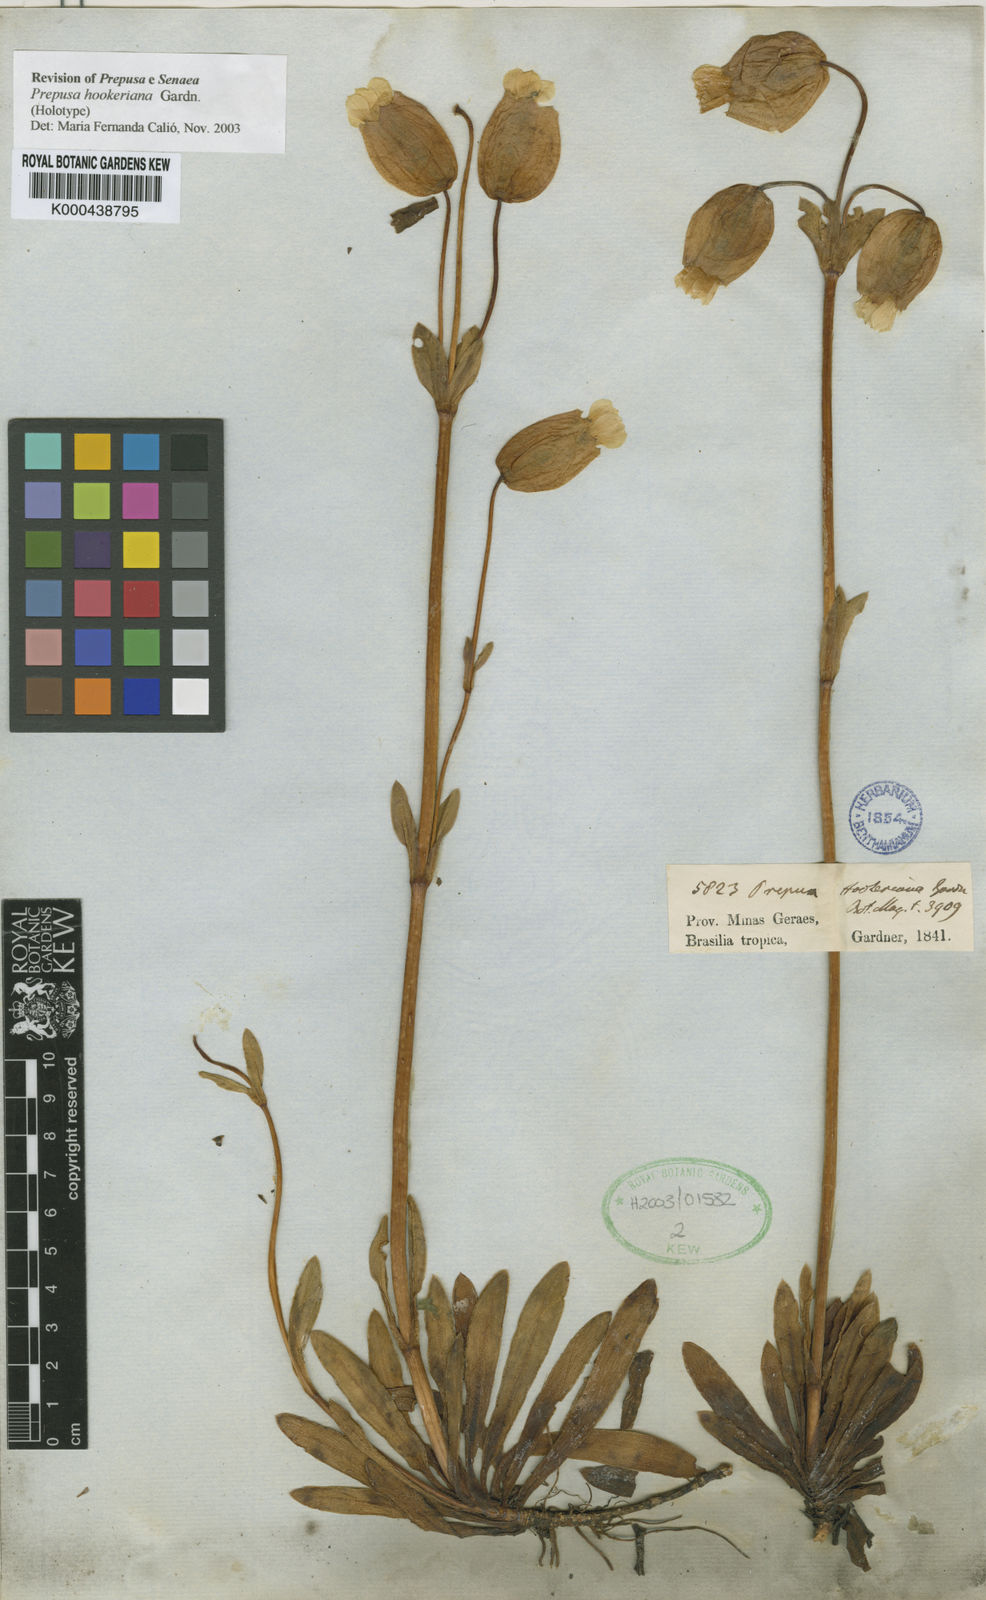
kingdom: Plantae
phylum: Tracheophyta
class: Magnoliopsida
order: Gentianales
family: Gentianaceae
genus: Prepusa
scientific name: Prepusa hookeriana
